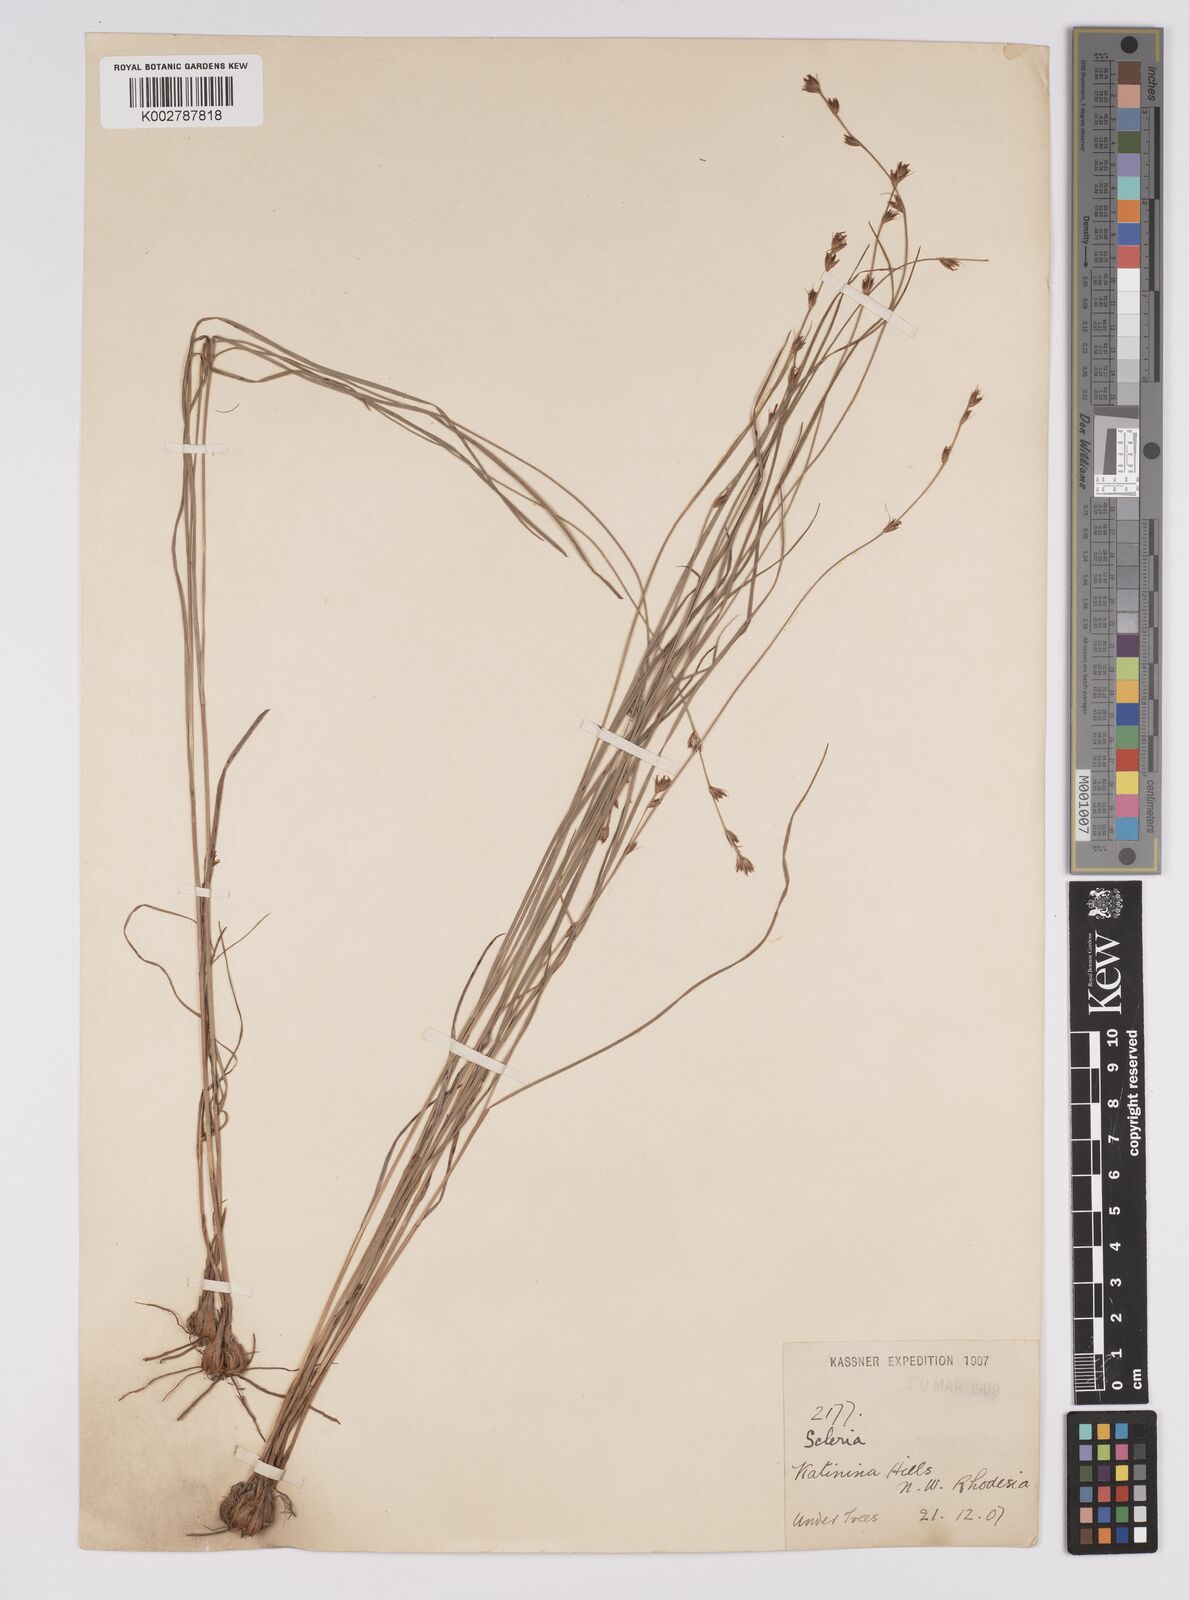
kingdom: Plantae
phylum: Tracheophyta
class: Liliopsida
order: Poales
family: Cyperaceae
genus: Scleria
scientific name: Scleria bulbifera
